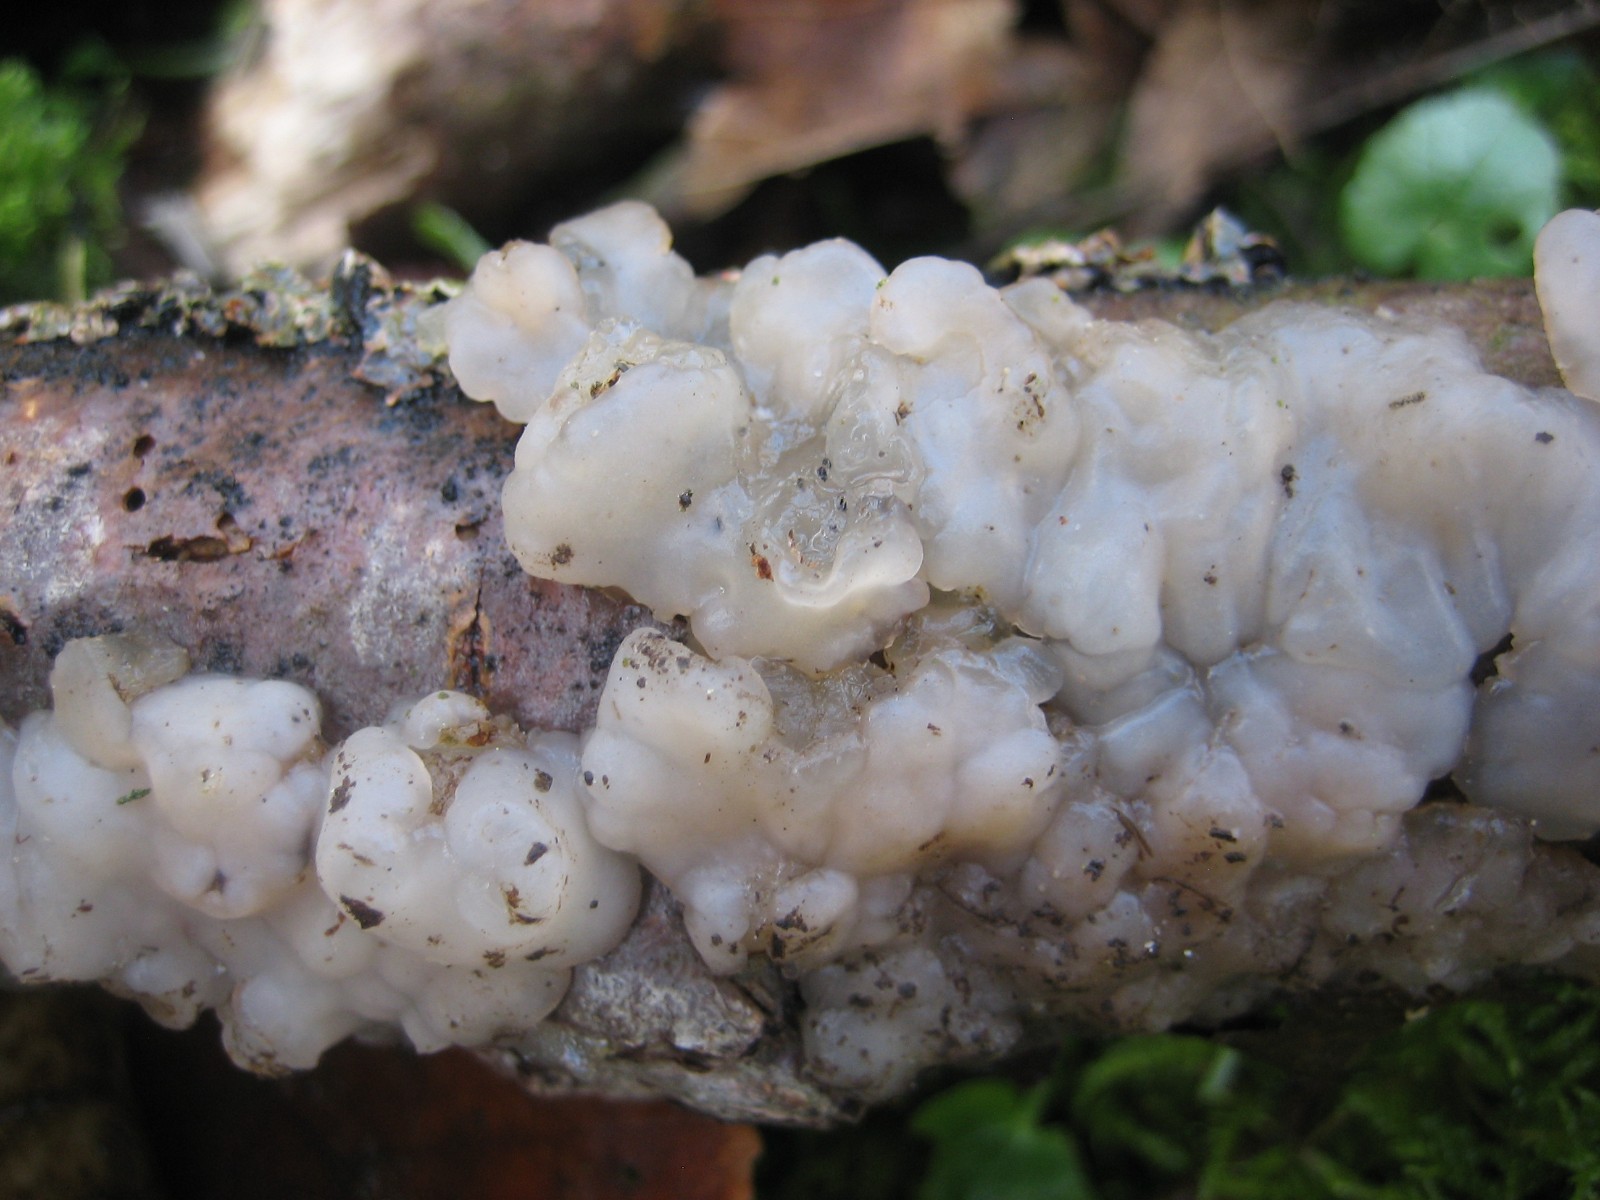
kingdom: Fungi
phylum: Basidiomycota
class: Agaricomycetes
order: Auriculariales
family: Auriculariaceae
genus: Exidia
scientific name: Exidia thuretiana
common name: hvidlig bævretop
